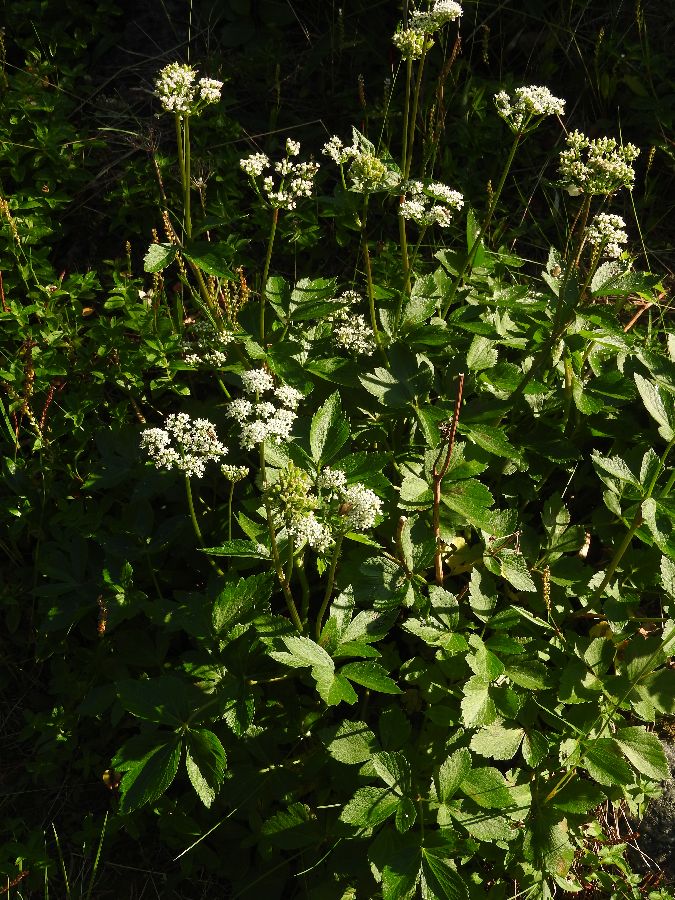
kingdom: Plantae
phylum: Tracheophyta
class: Magnoliopsida
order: Apiales
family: Apiaceae
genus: Ligusticum
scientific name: Ligusticum scothicum
